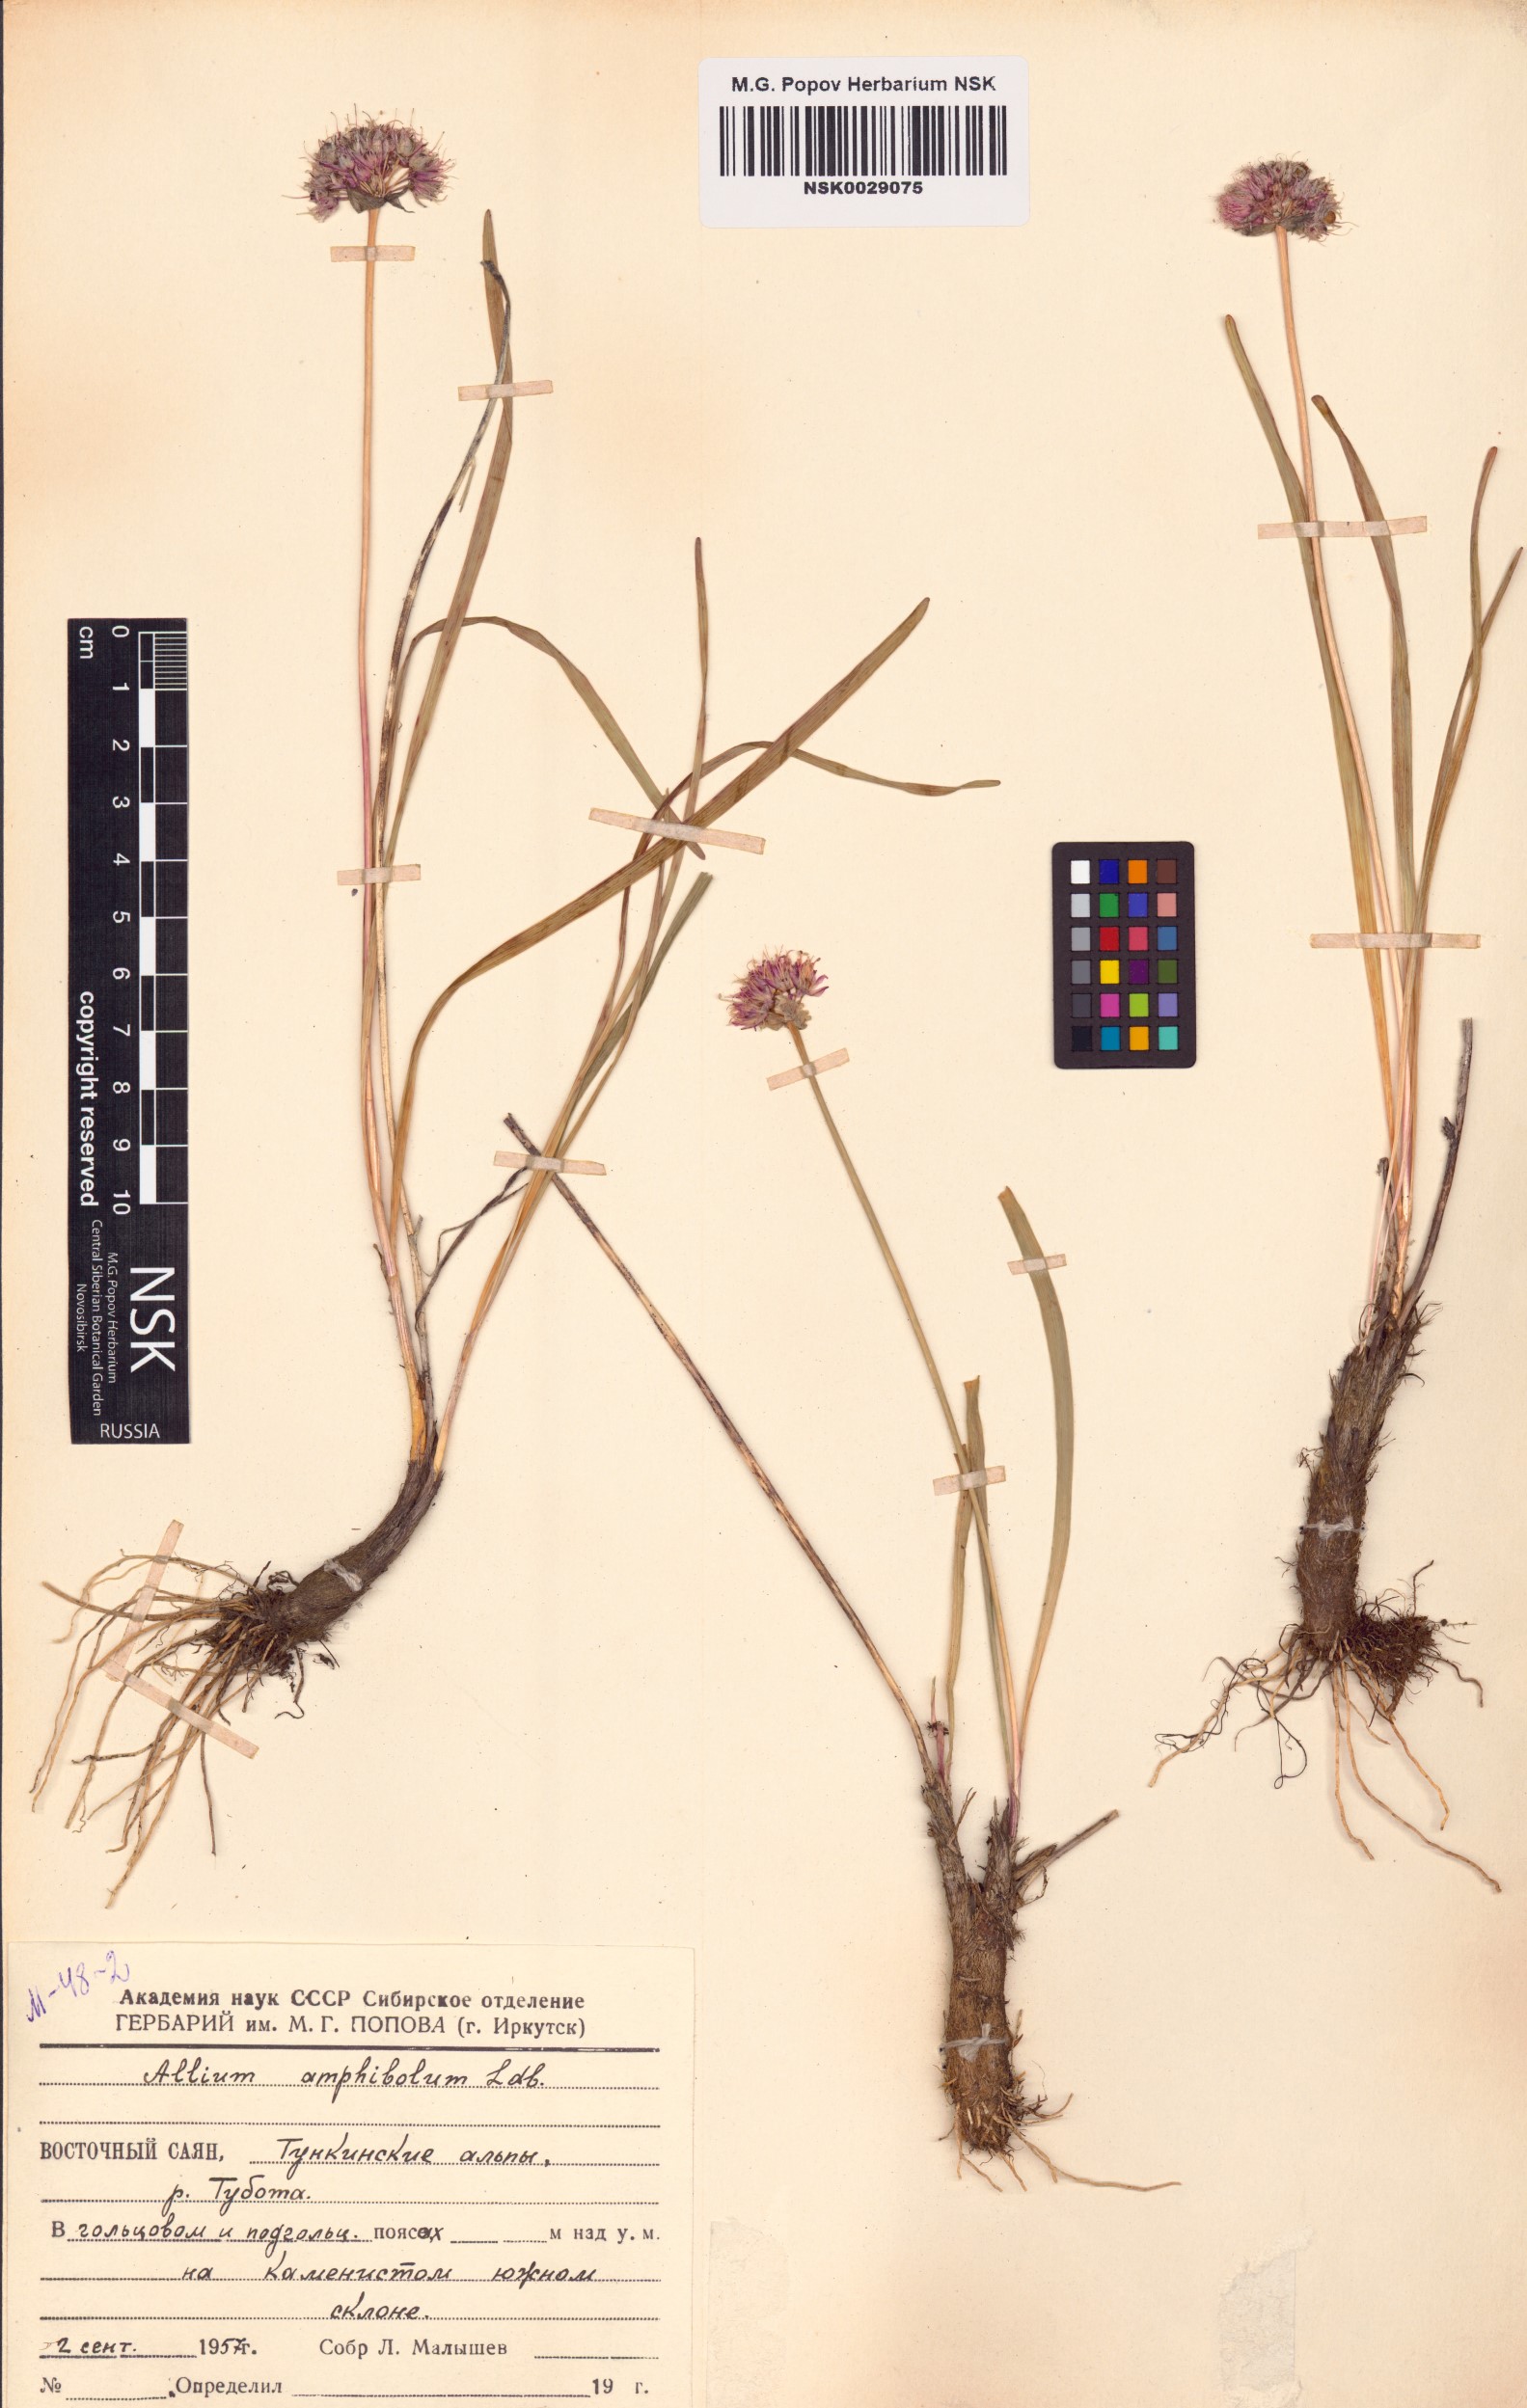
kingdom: Plantae
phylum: Tracheophyta
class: Liliopsida
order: Asparagales
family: Amaryllidaceae
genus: Allium
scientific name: Allium amphibolum
